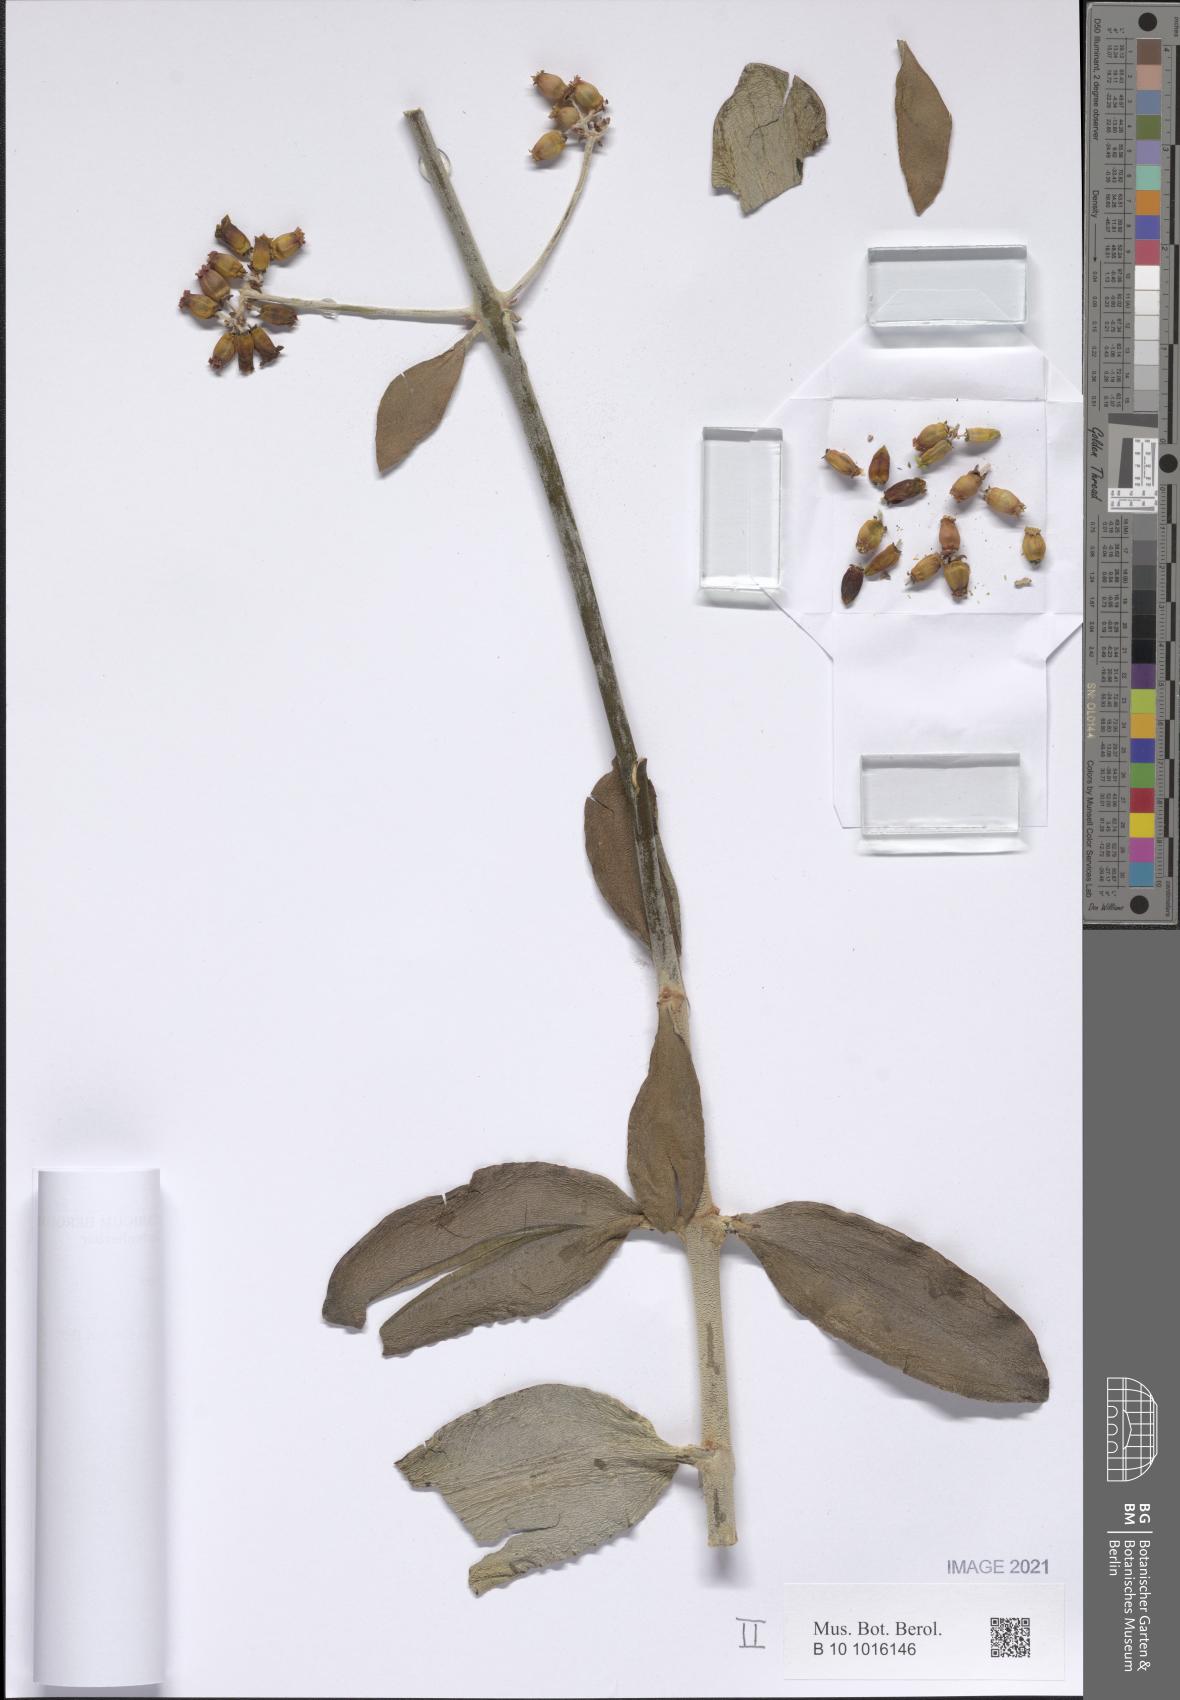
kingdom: Plantae
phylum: Tracheophyta
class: Magnoliopsida
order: Saxifragales
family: Crassulaceae
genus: Kalanchoe
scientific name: Kalanchoe orgyalis
